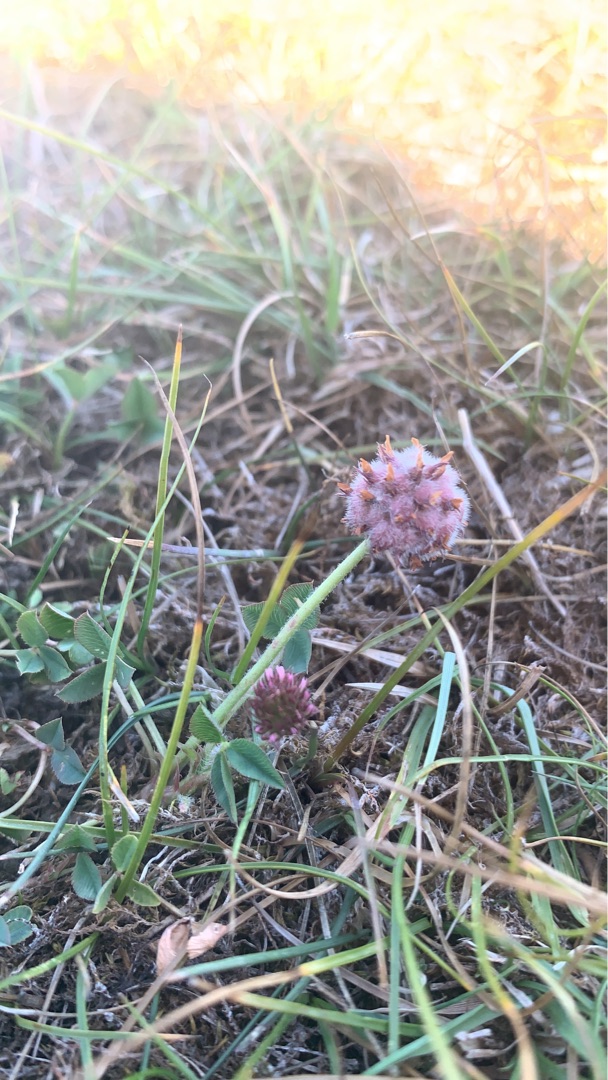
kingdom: Plantae
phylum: Tracheophyta
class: Magnoliopsida
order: Fabales
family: Fabaceae
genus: Trifolium
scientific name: Trifolium fragiferum
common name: Jordbær-kløver
